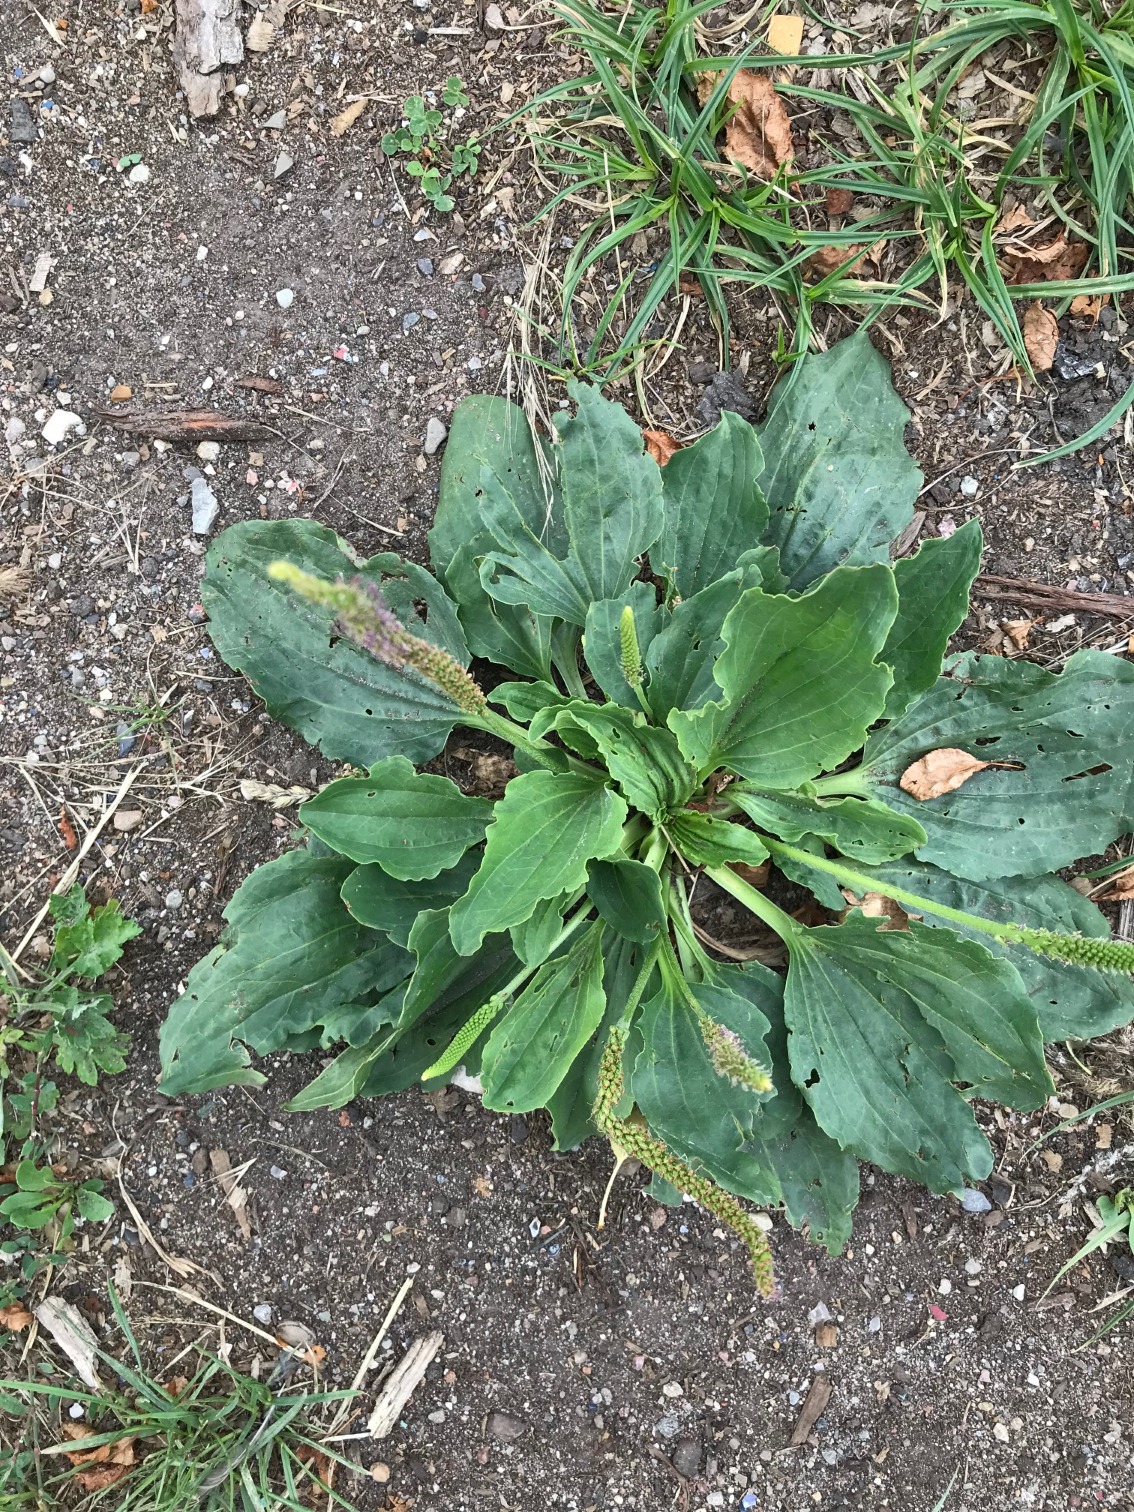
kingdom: Plantae
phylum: Tracheophyta
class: Magnoliopsida
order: Lamiales
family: Plantaginaceae
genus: Plantago
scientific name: Plantago major
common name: Glat vejbred
